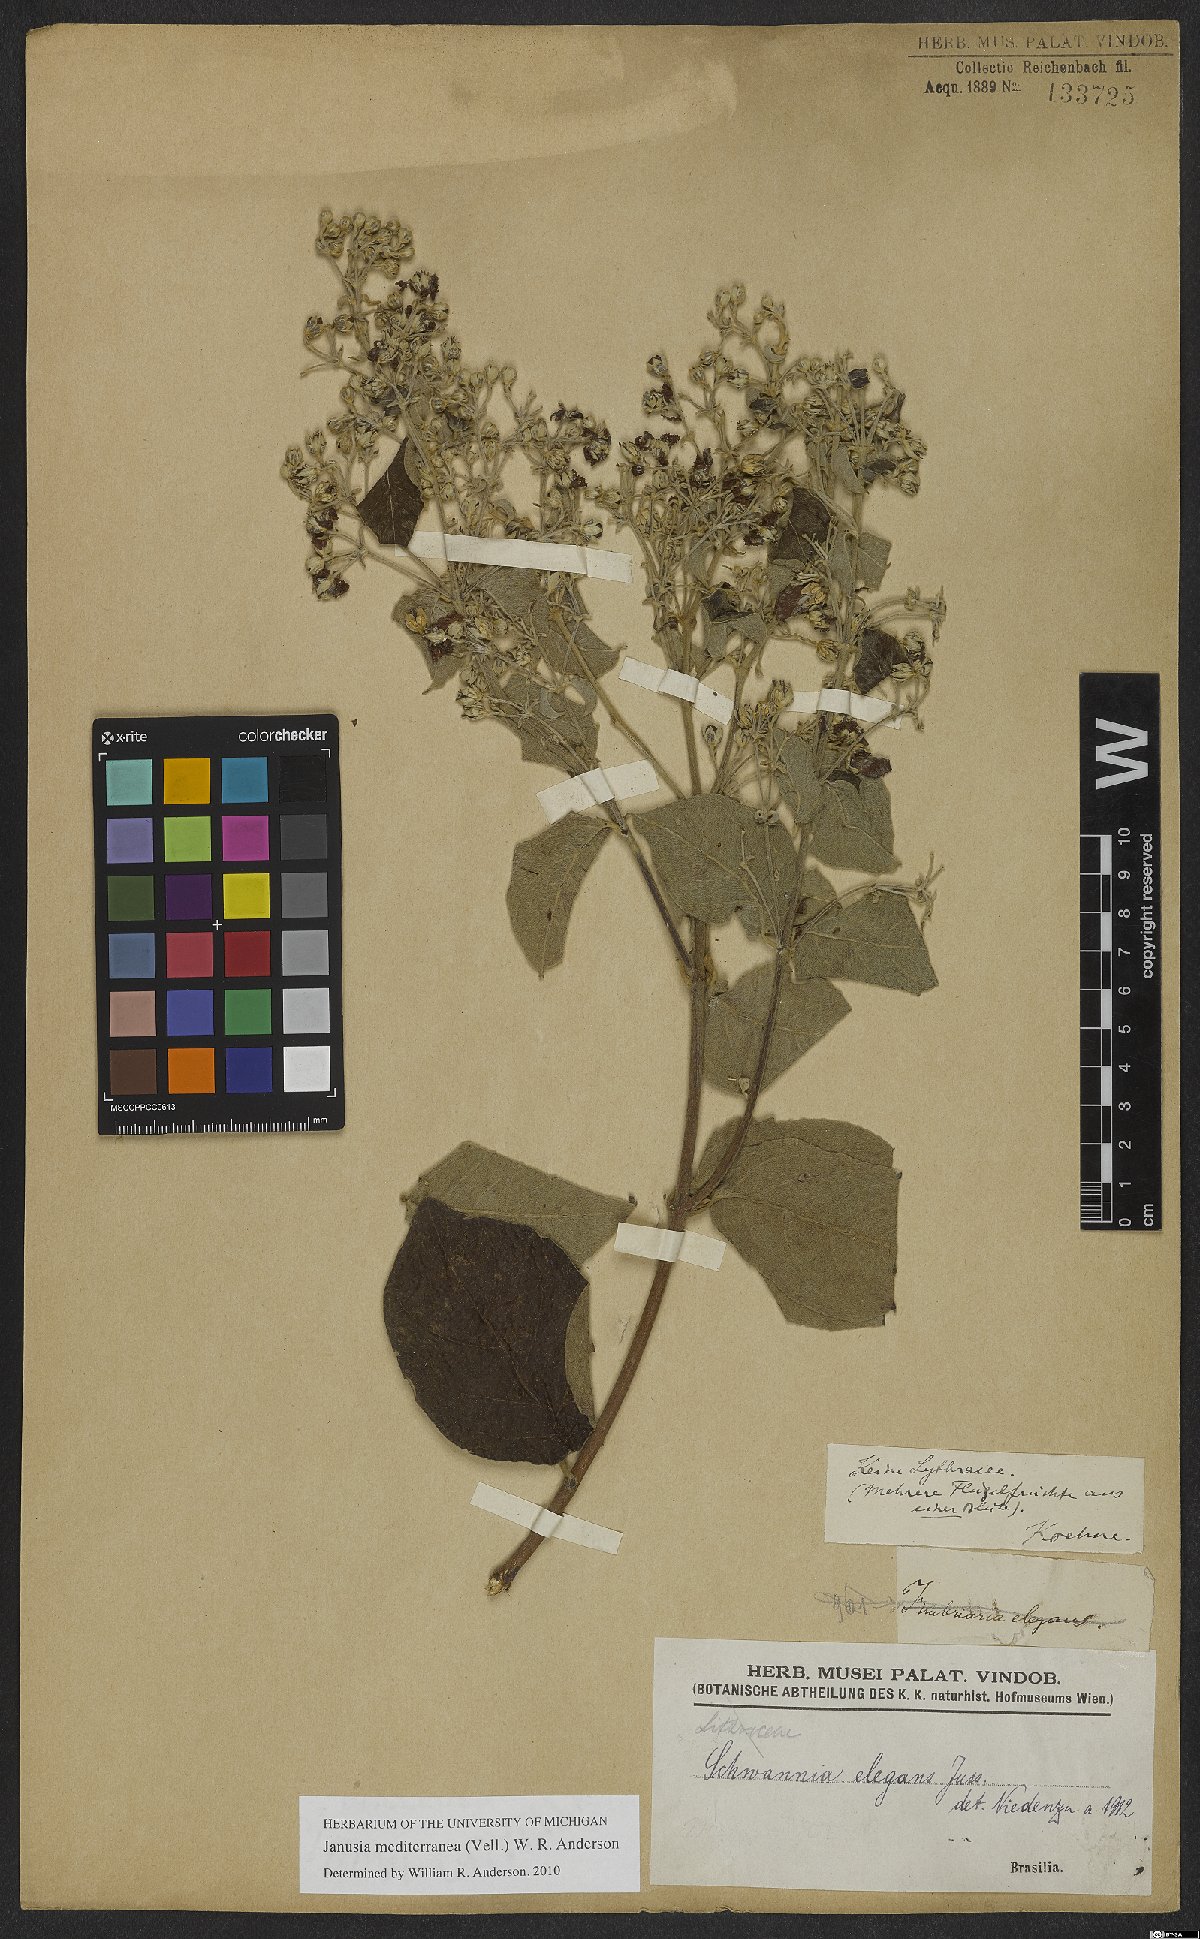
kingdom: Plantae
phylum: Tracheophyta
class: Magnoliopsida
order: Malpighiales
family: Malpighiaceae
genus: Janusia
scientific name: Janusia mediterranea
